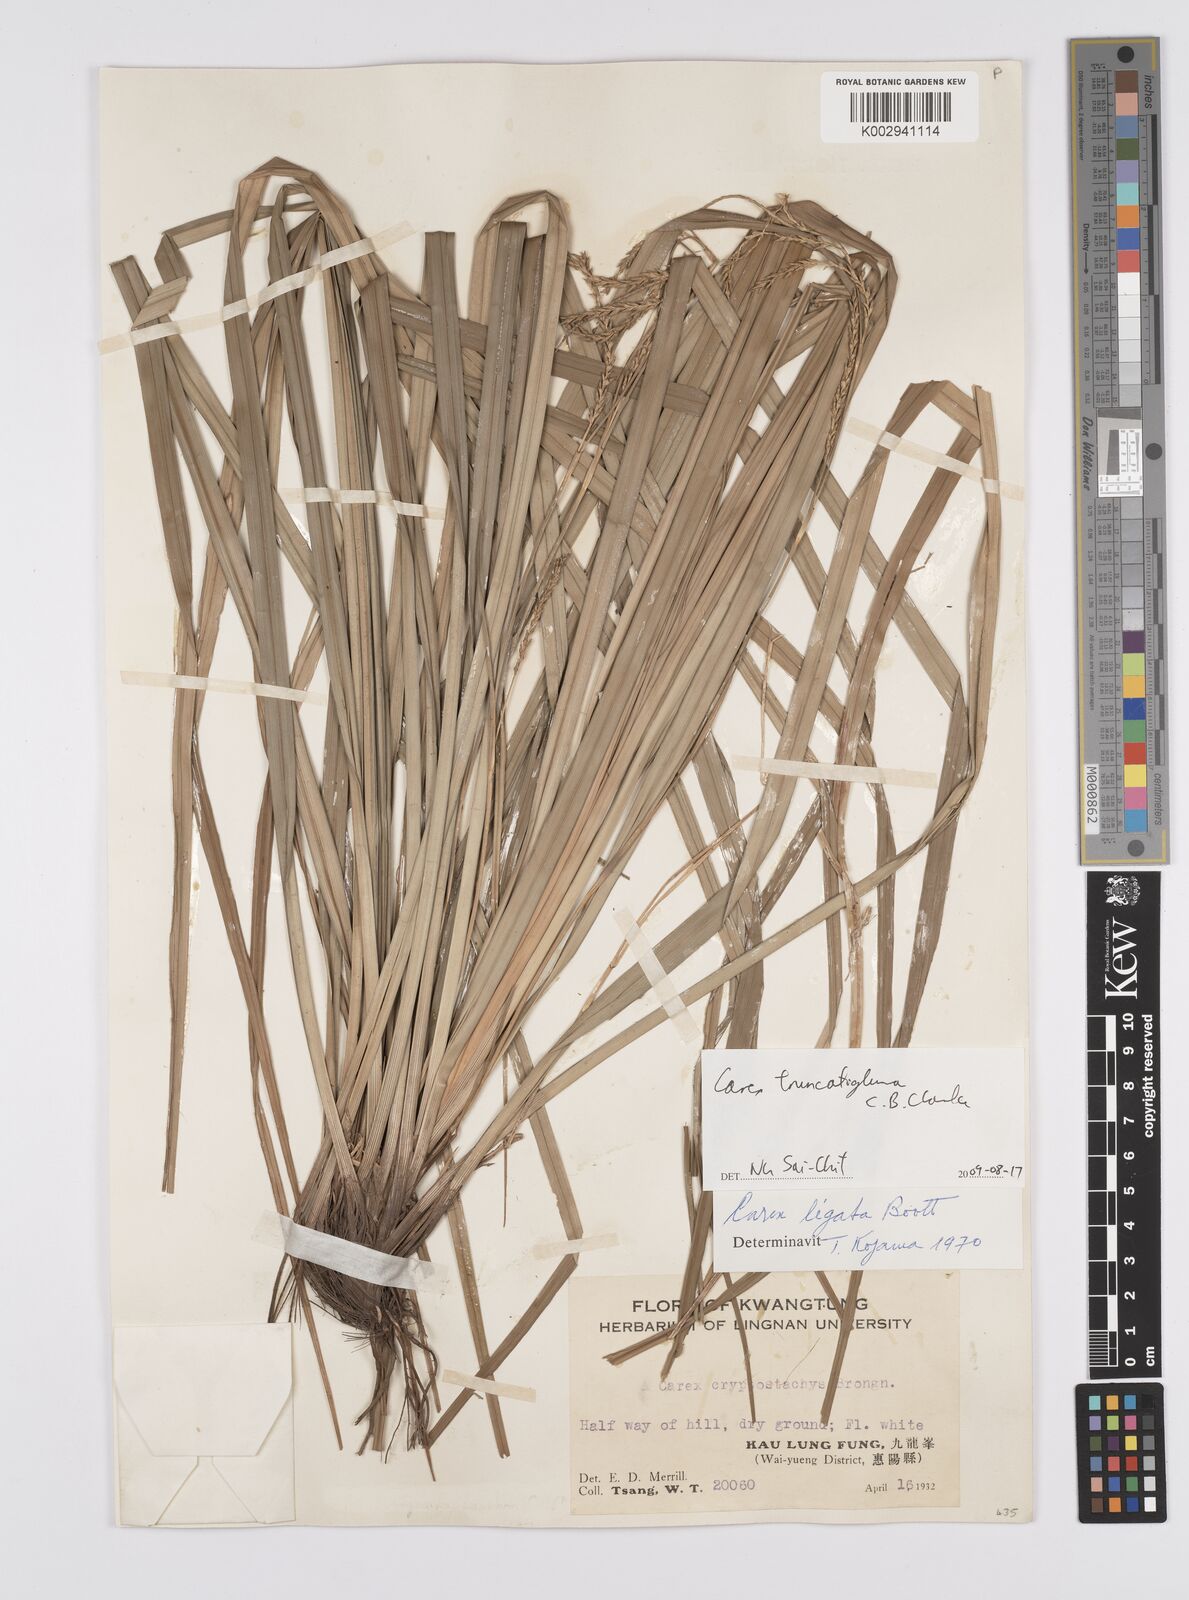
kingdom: Plantae
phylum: Tracheophyta
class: Liliopsida
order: Poales
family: Cyperaceae
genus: Carex
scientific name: Carex truncatigluma
